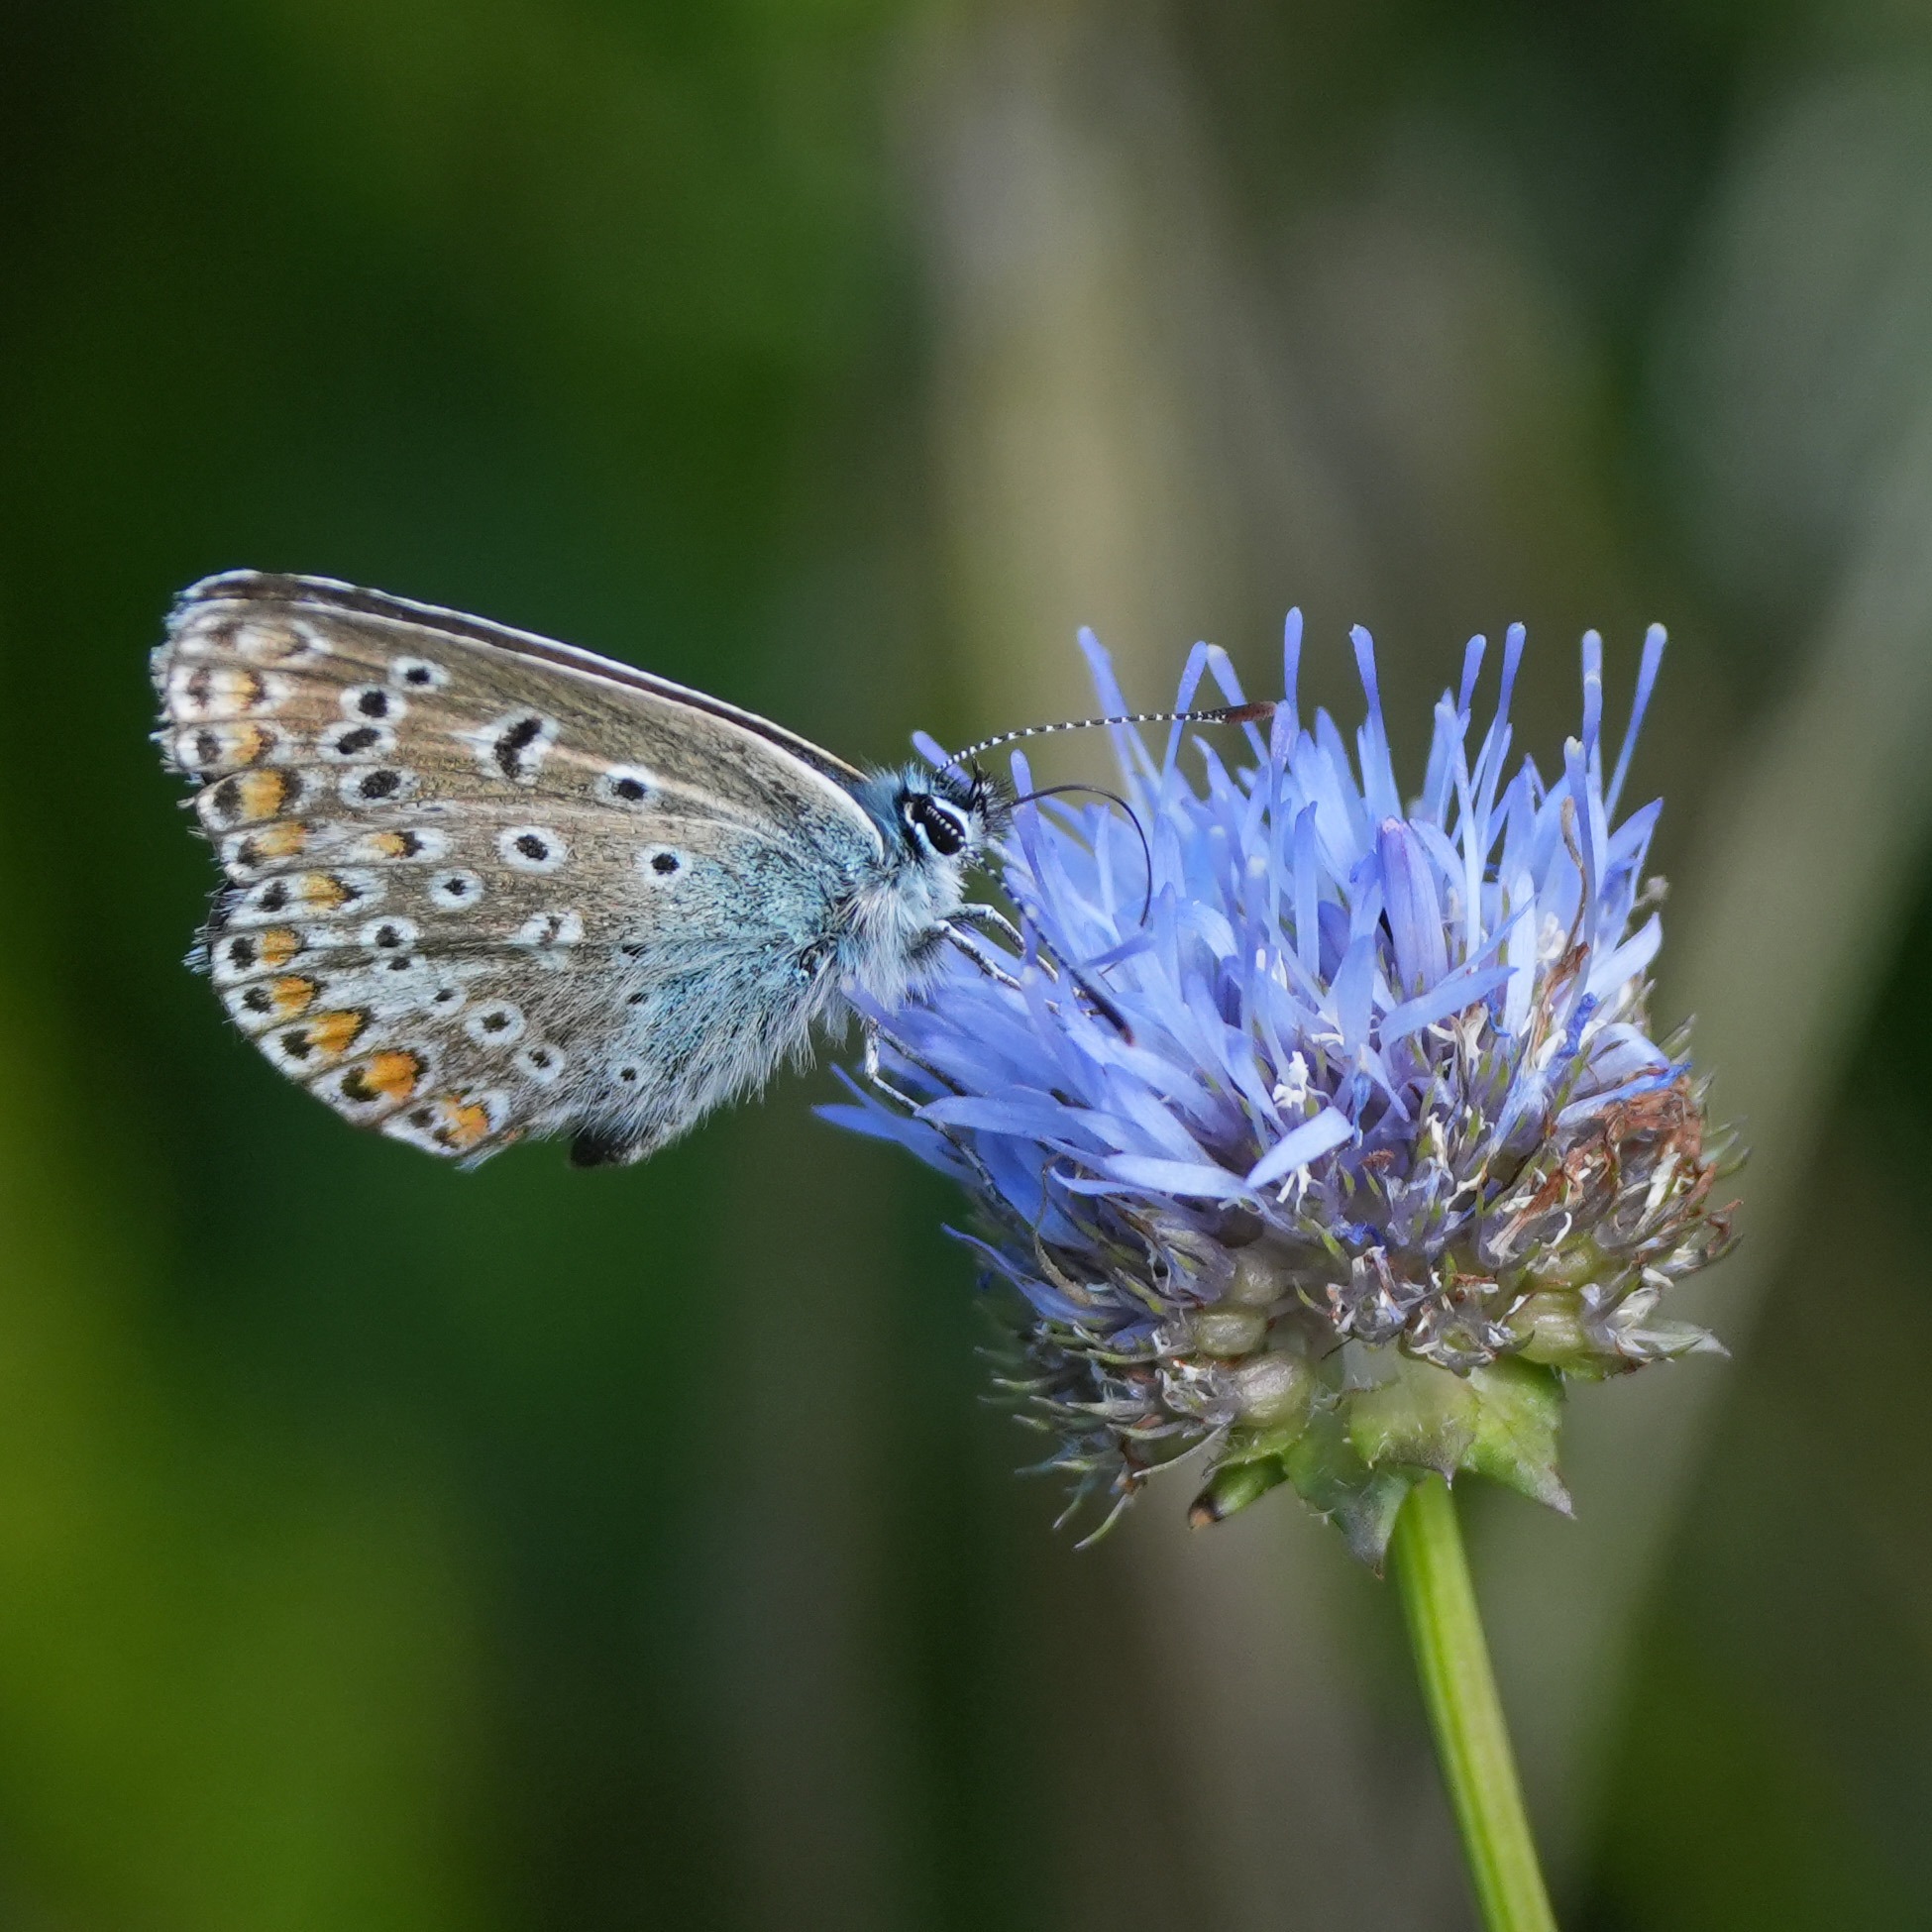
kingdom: Animalia
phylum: Arthropoda
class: Insecta
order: Lepidoptera
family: Lycaenidae
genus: Polyommatus
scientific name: Polyommatus icarus
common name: Almindelig blåfugl
